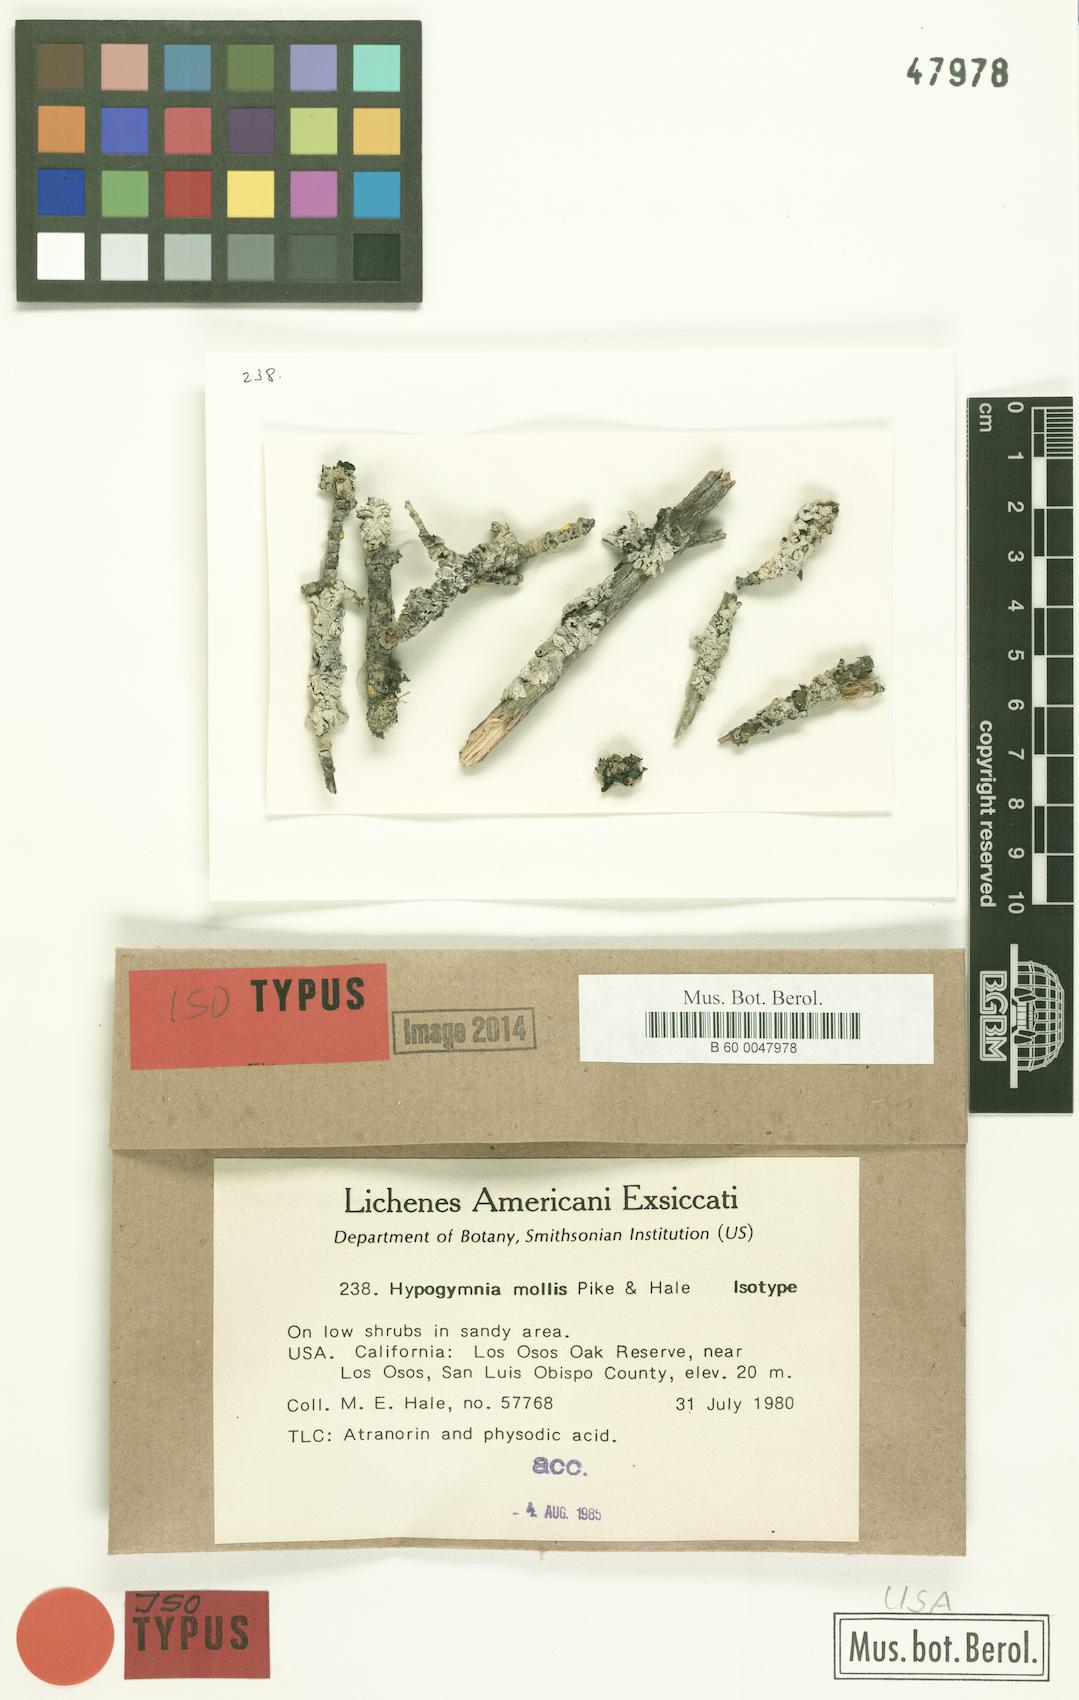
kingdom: Fungi
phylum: Ascomycota
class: Lecanoromycetes
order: Lecanorales
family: Parmeliaceae
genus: Hypogymnia
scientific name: Hypogymnia mollis
